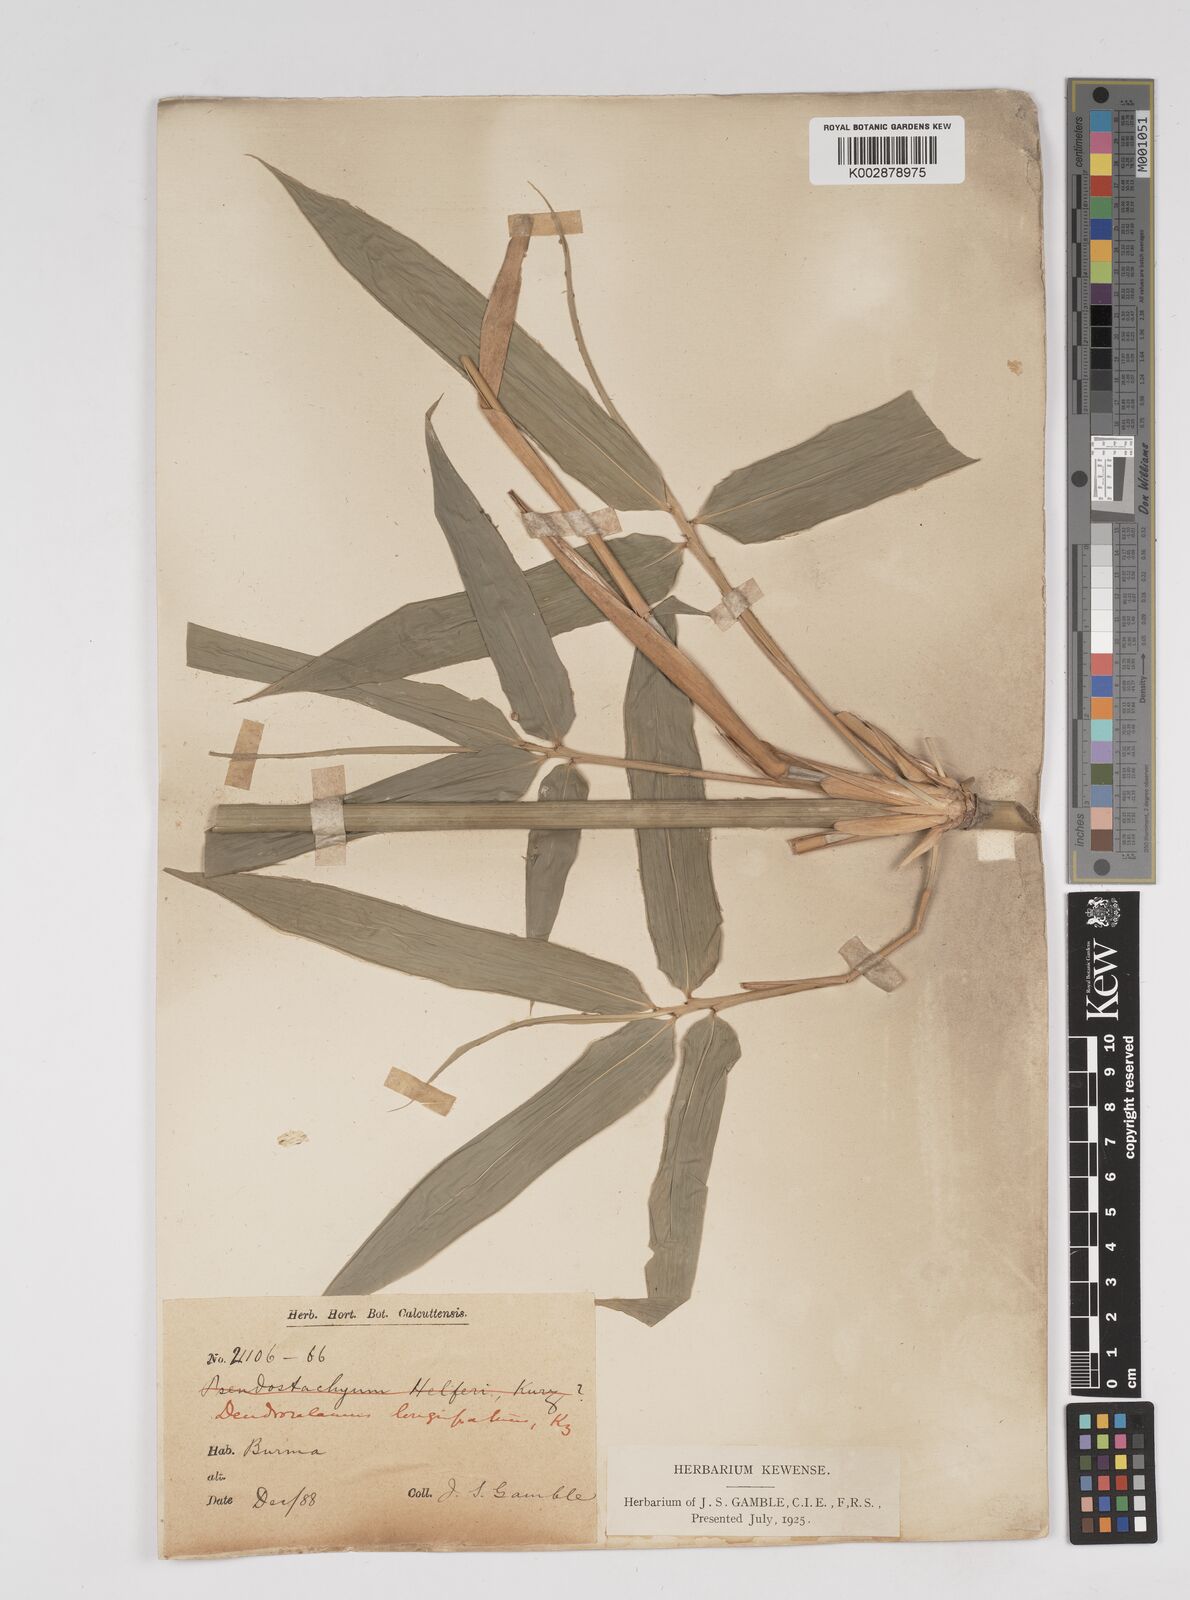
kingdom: Plantae
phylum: Tracheophyta
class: Liliopsida
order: Poales
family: Poaceae
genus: Dendrocalamus
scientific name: Dendrocalamus longispathus
